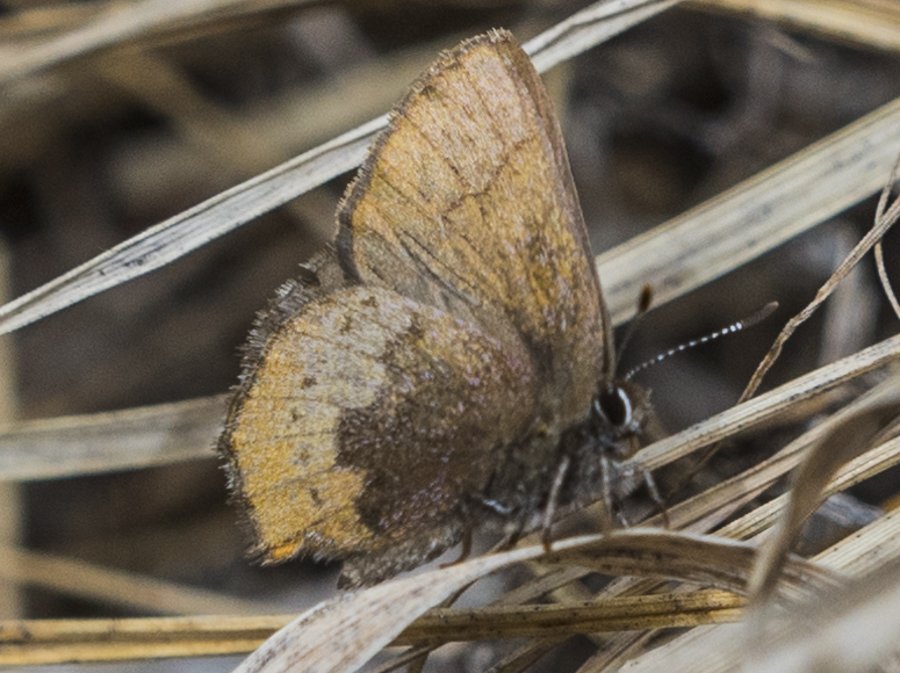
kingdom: Animalia
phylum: Arthropoda
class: Insecta
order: Lepidoptera
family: Lycaenidae
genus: Incisalia
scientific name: Incisalia irioides
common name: Brown Elfin
